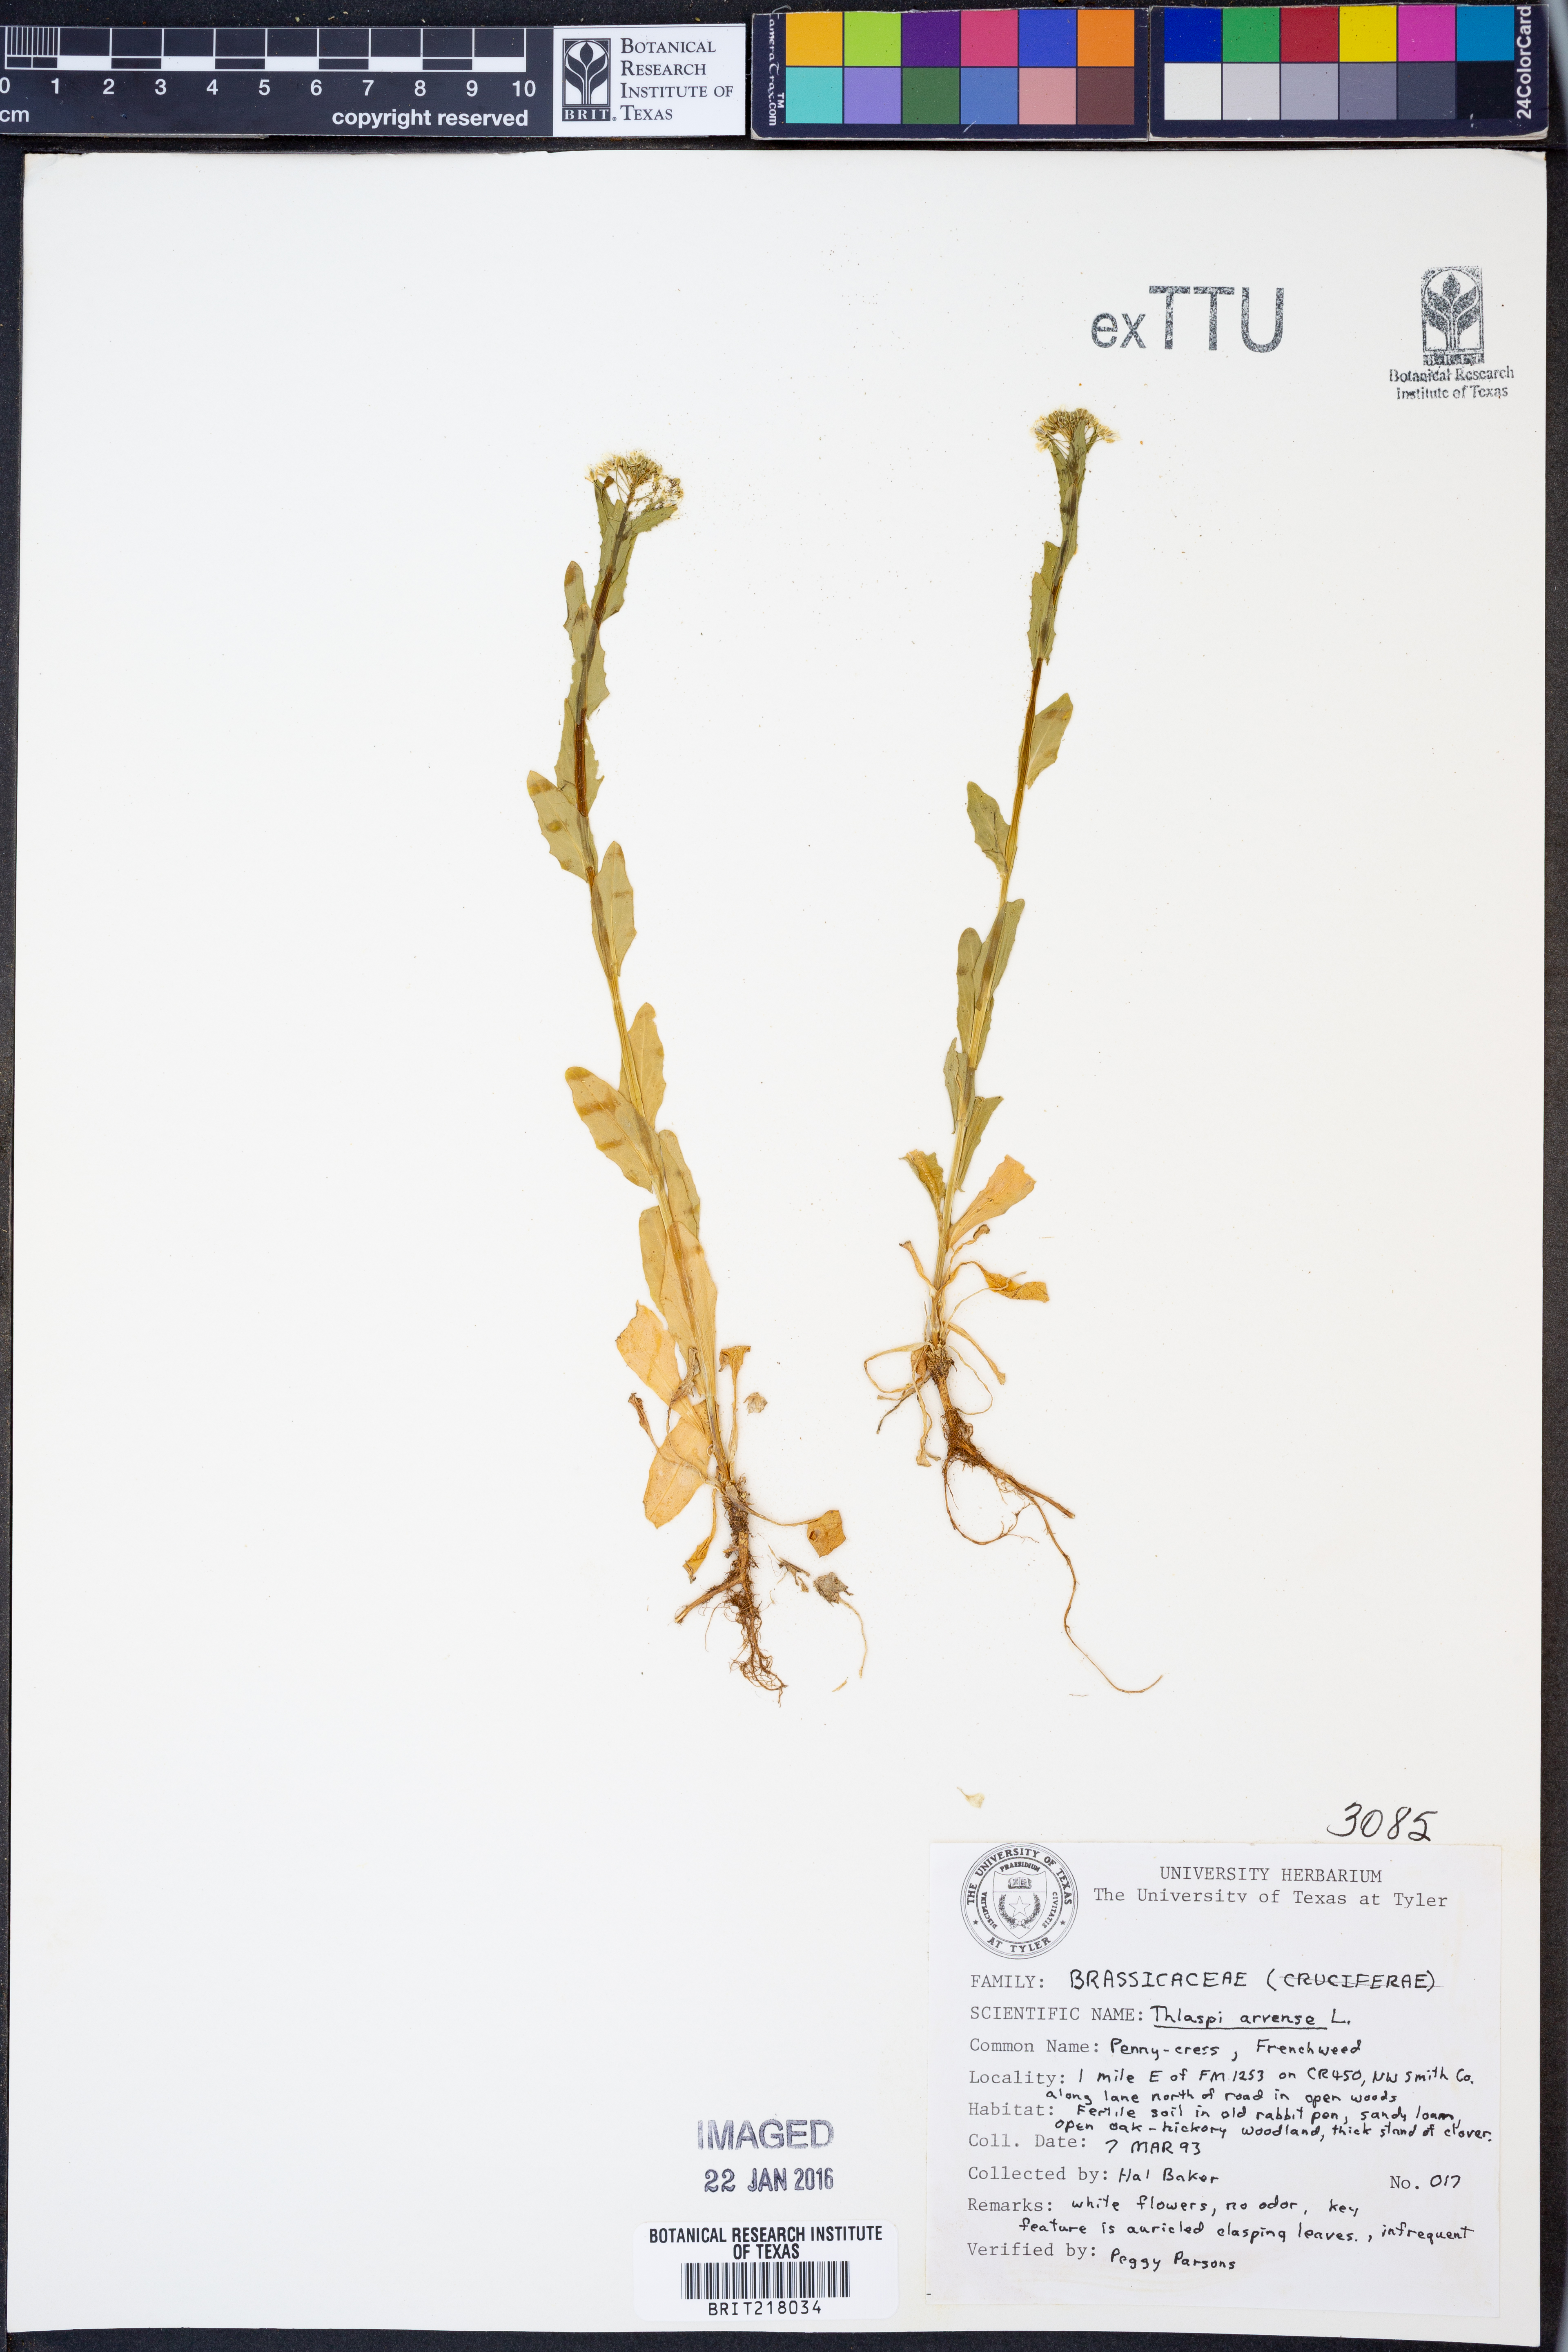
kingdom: Plantae
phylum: Tracheophyta
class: Magnoliopsida
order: Brassicales
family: Brassicaceae
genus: Thlaspi
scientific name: Thlaspi arvense
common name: Field pennycress
